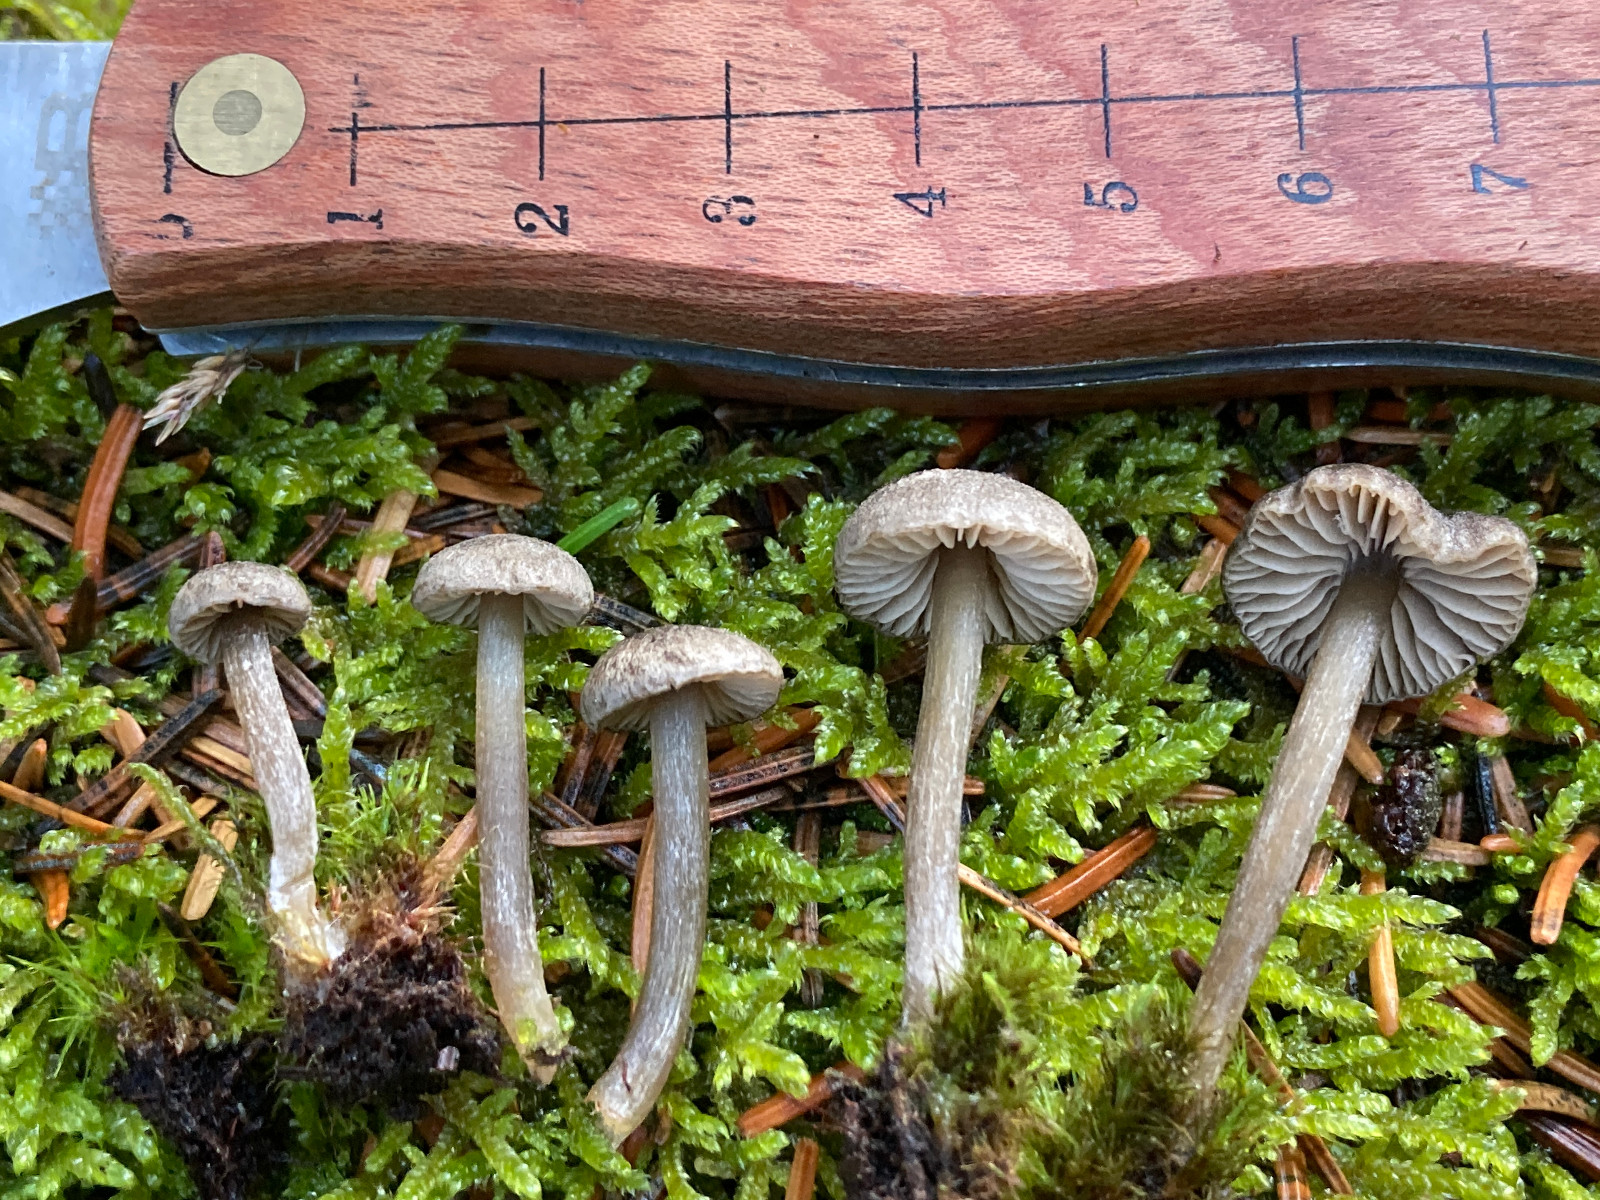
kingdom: Fungi
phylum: Basidiomycota
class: Agaricomycetes
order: Agaricales
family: Entolomataceae
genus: Entoloma
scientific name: Entoloma
